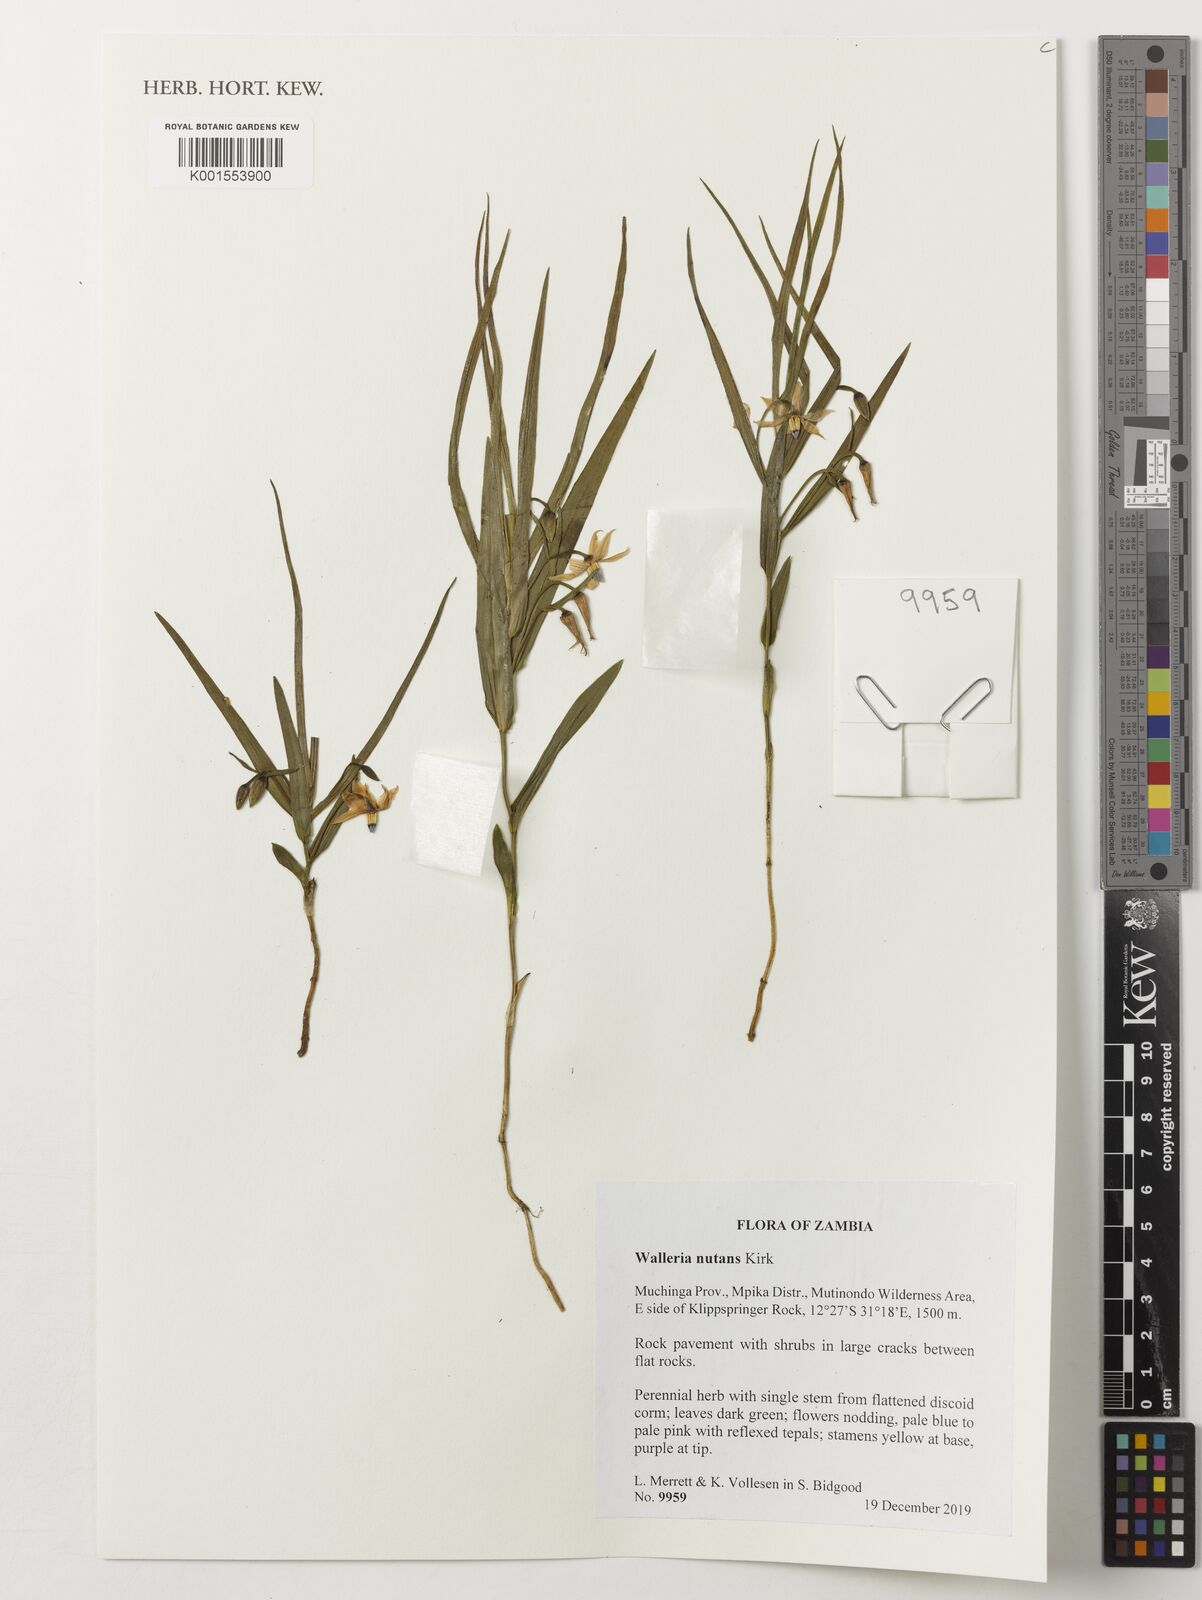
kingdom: Plantae
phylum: Tracheophyta
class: Liliopsida
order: Asparagales
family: Tecophilaeaceae
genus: Walleria
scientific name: Walleria nutans
